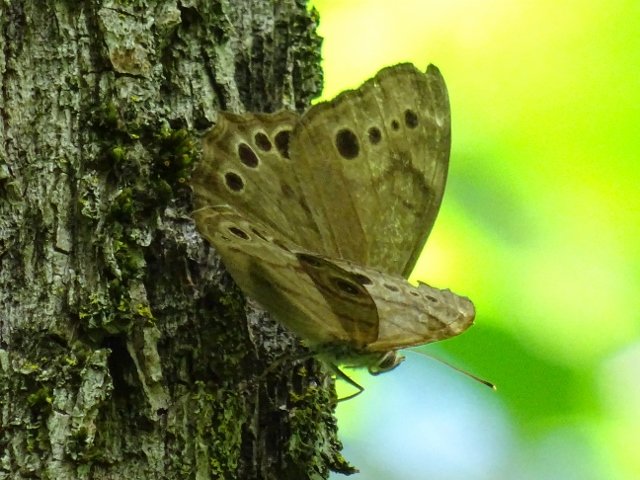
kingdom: Animalia
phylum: Arthropoda
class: Insecta
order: Lepidoptera
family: Nymphalidae
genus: Lethe
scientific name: Lethe anthedon
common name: Northern Pearly-Eye
